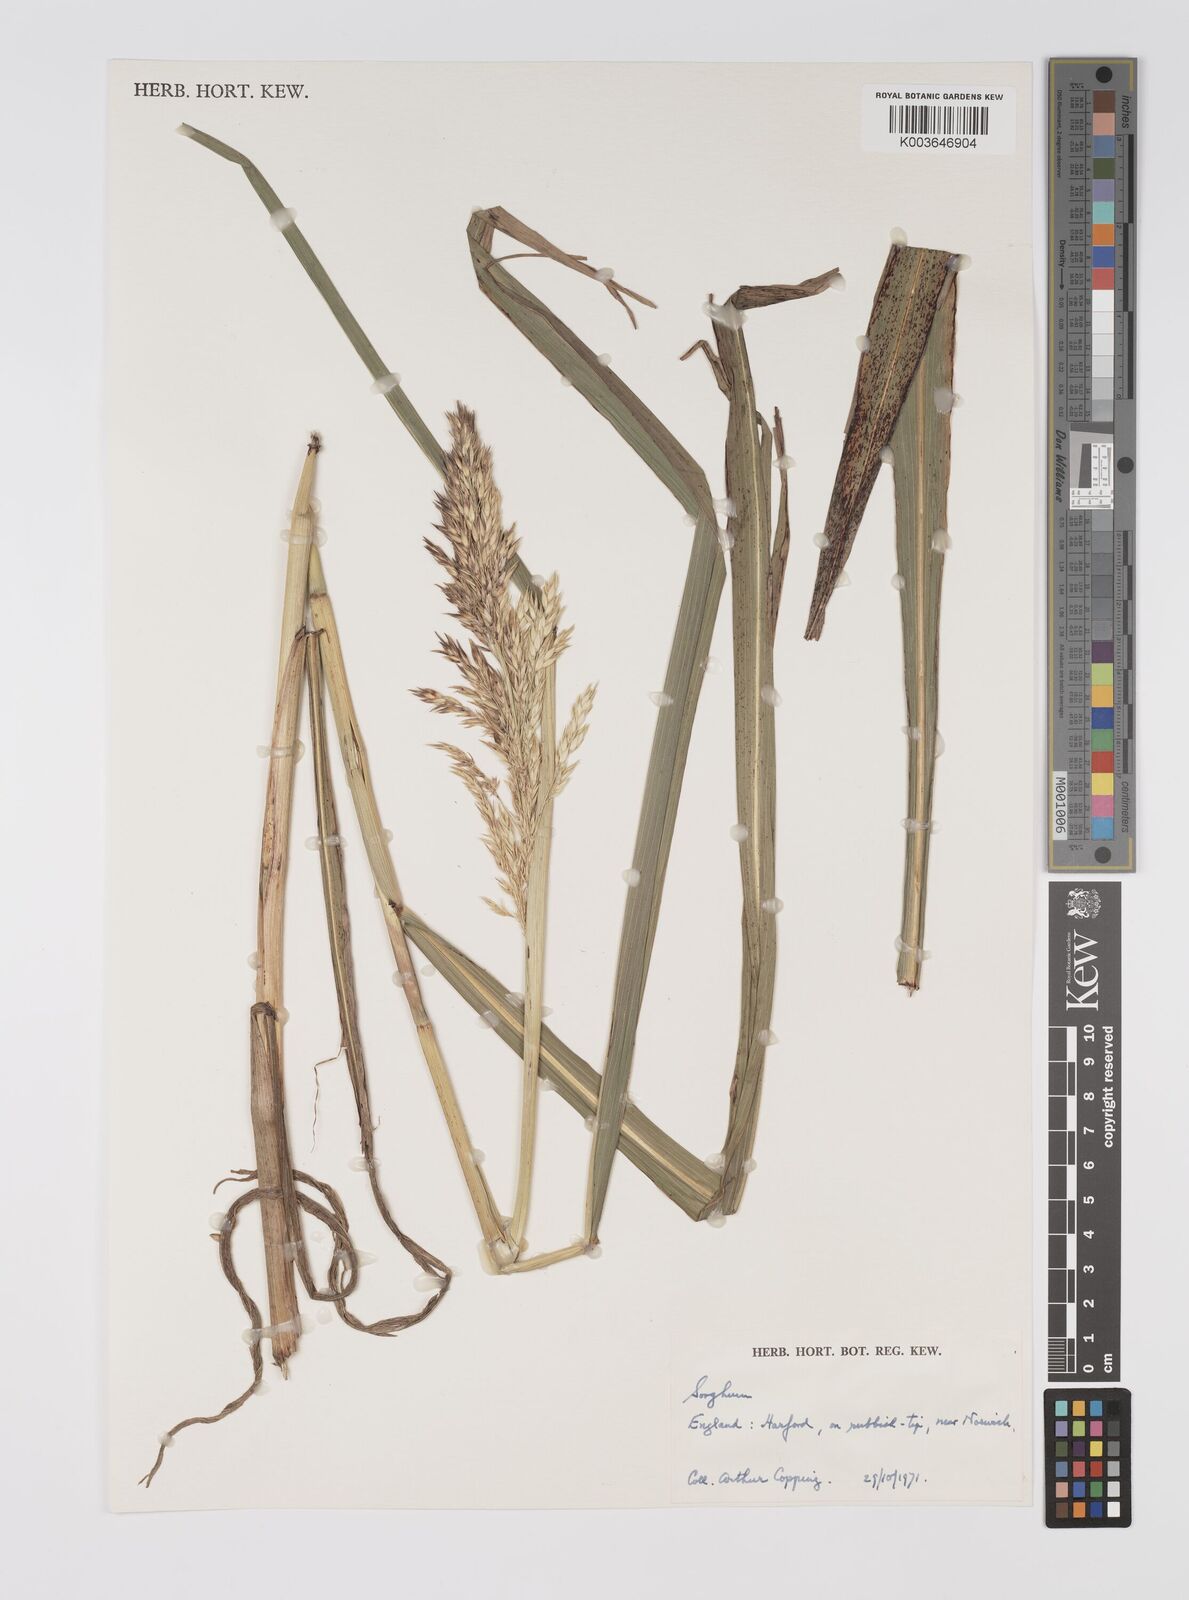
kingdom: Plantae
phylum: Tracheophyta
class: Liliopsida
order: Poales
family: Poaceae
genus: Sorghum
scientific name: Sorghum
